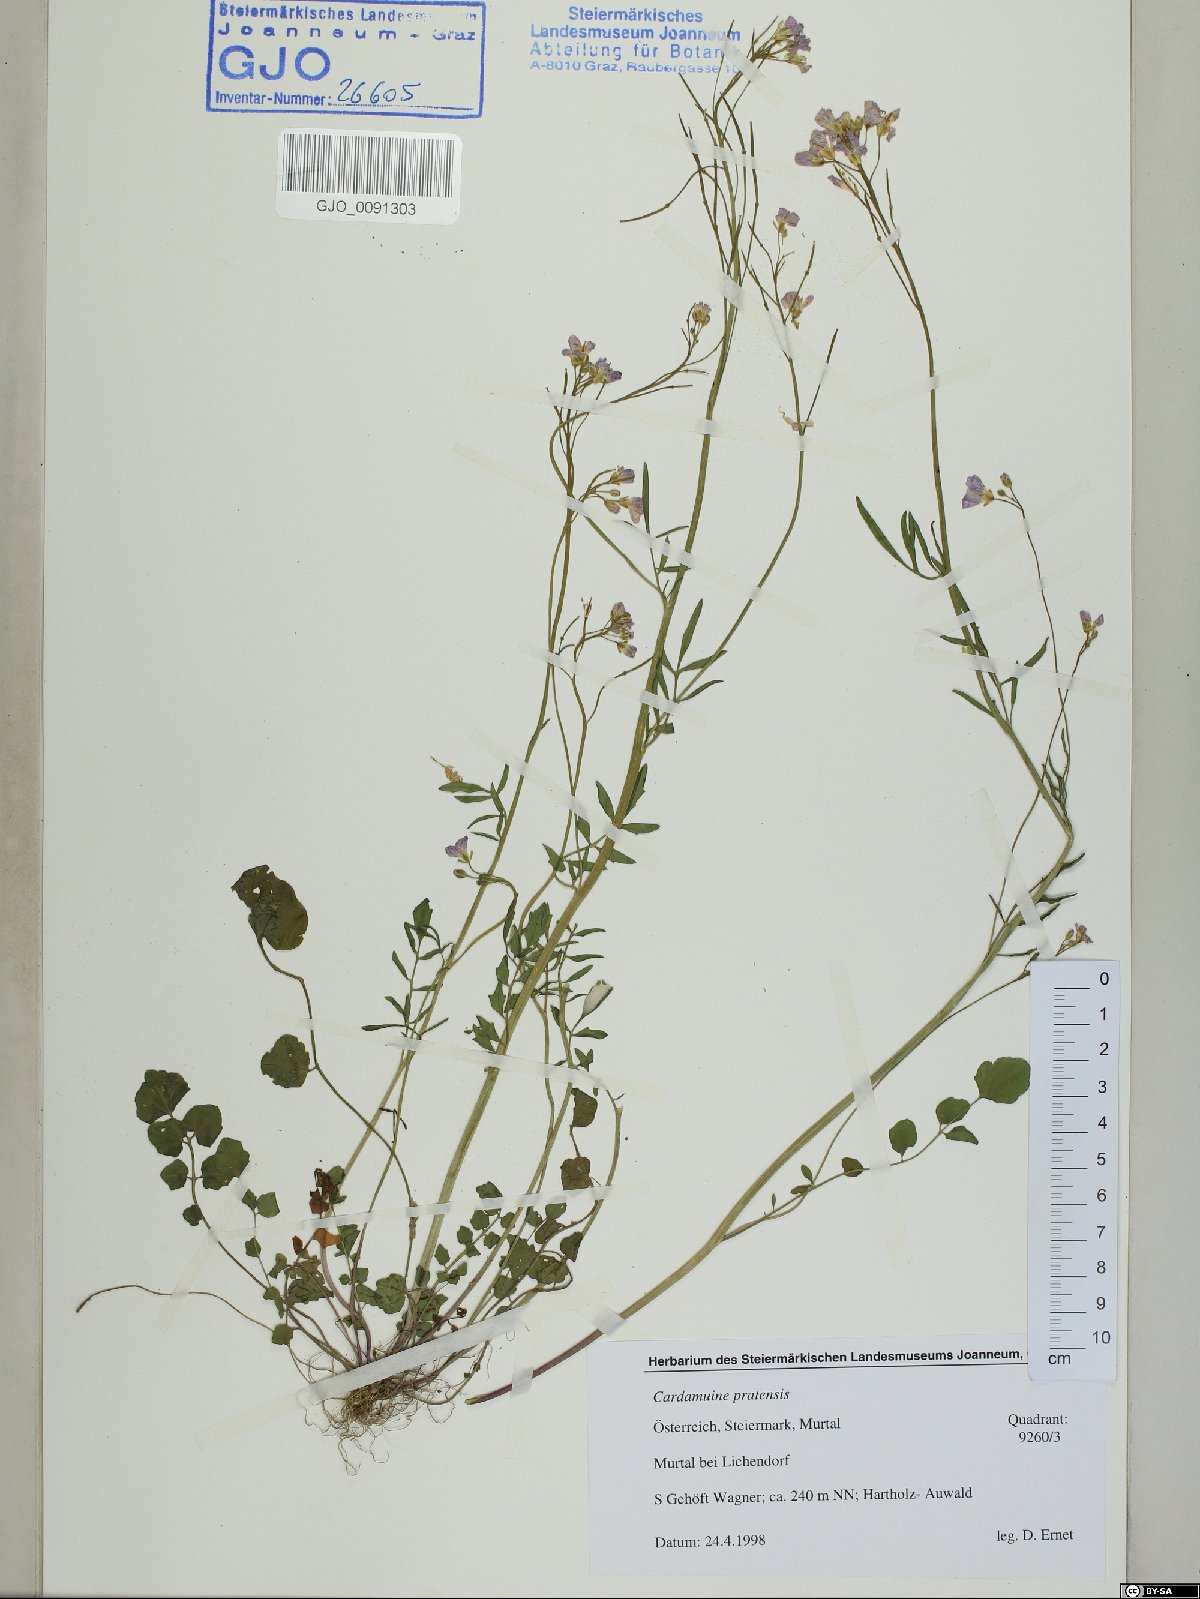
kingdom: Plantae
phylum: Tracheophyta
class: Magnoliopsida
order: Brassicales
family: Brassicaceae
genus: Cardamine
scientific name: Cardamine pratensis
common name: Cuckoo flower
